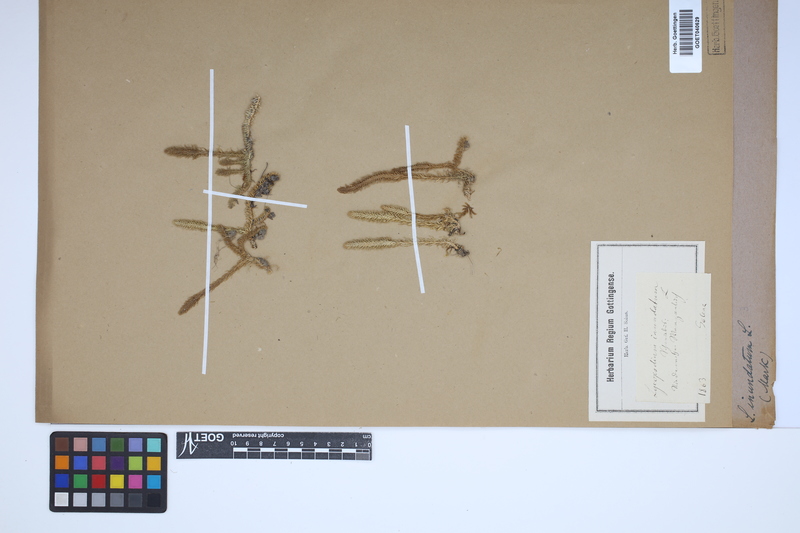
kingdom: Plantae
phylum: Tracheophyta
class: Lycopodiopsida
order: Lycopodiales
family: Lycopodiaceae
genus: Lycopodiella
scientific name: Lycopodiella inundata
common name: Marsh clubmoss
